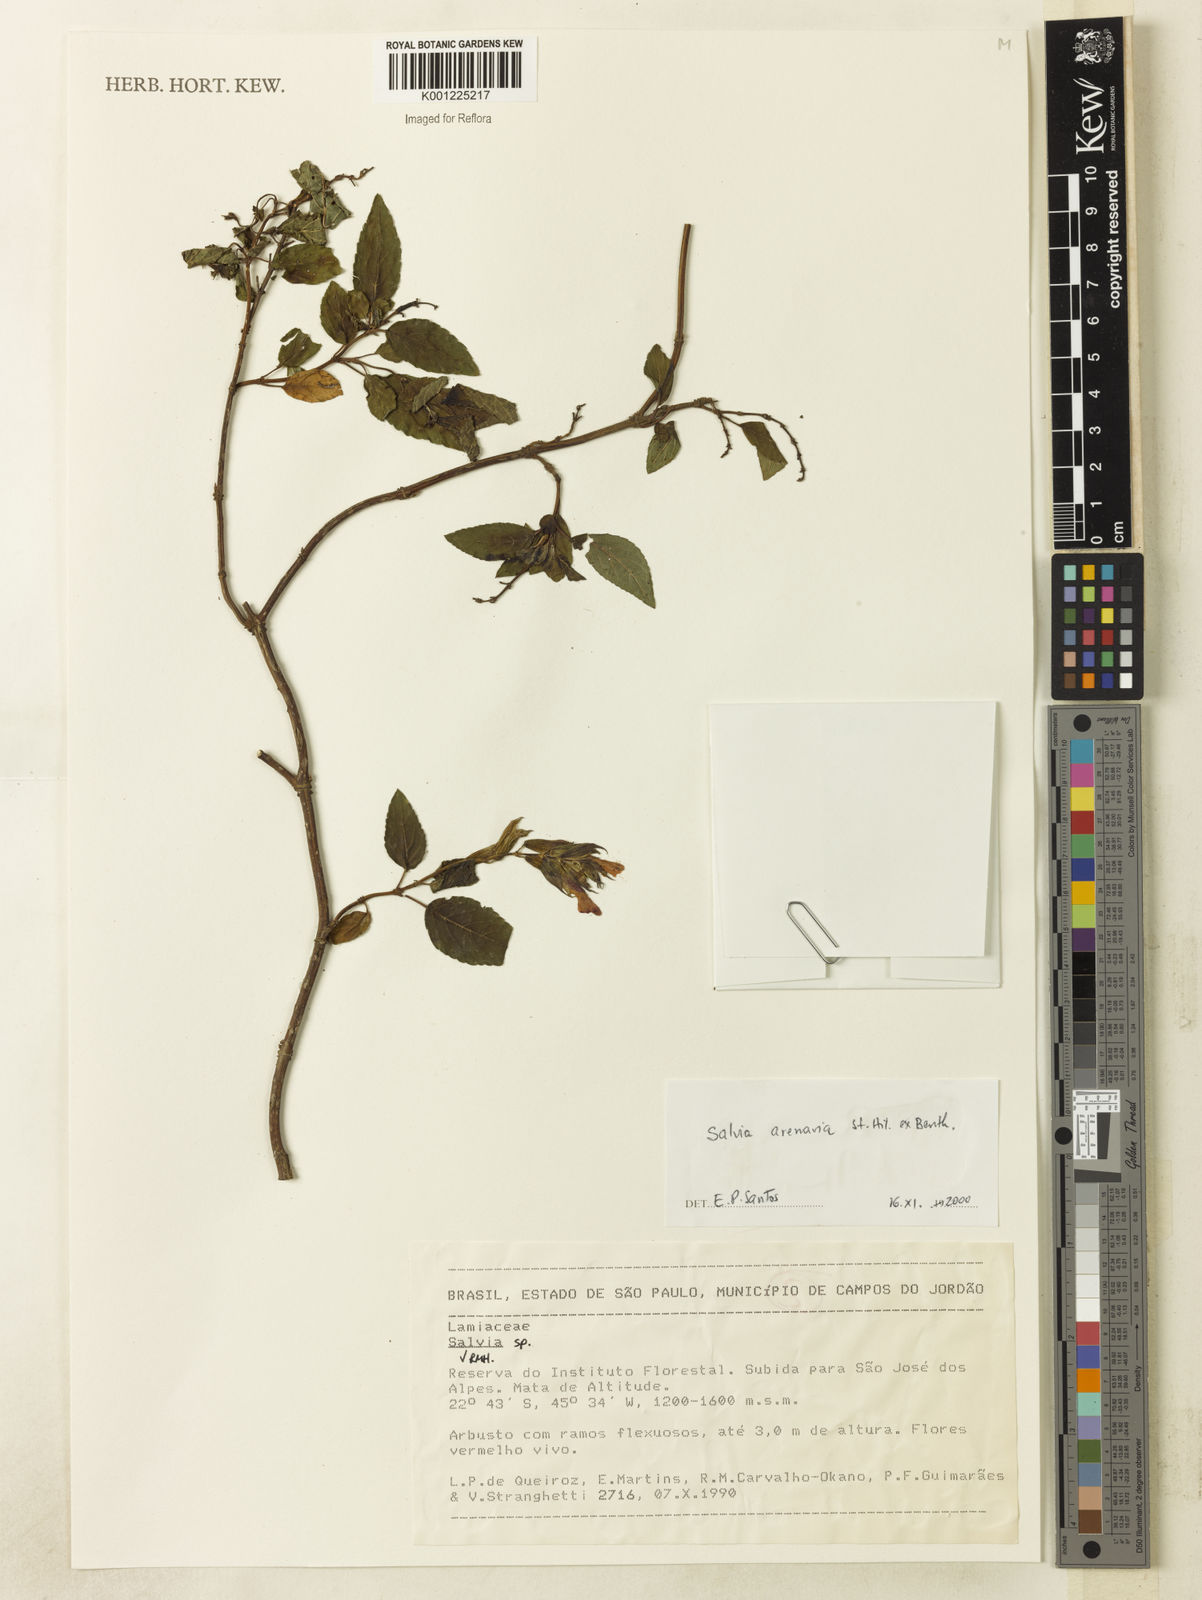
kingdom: Plantae
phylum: Tracheophyta
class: Magnoliopsida
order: Lamiales
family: Lamiaceae
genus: Salvia
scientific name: Salvia arenaria
